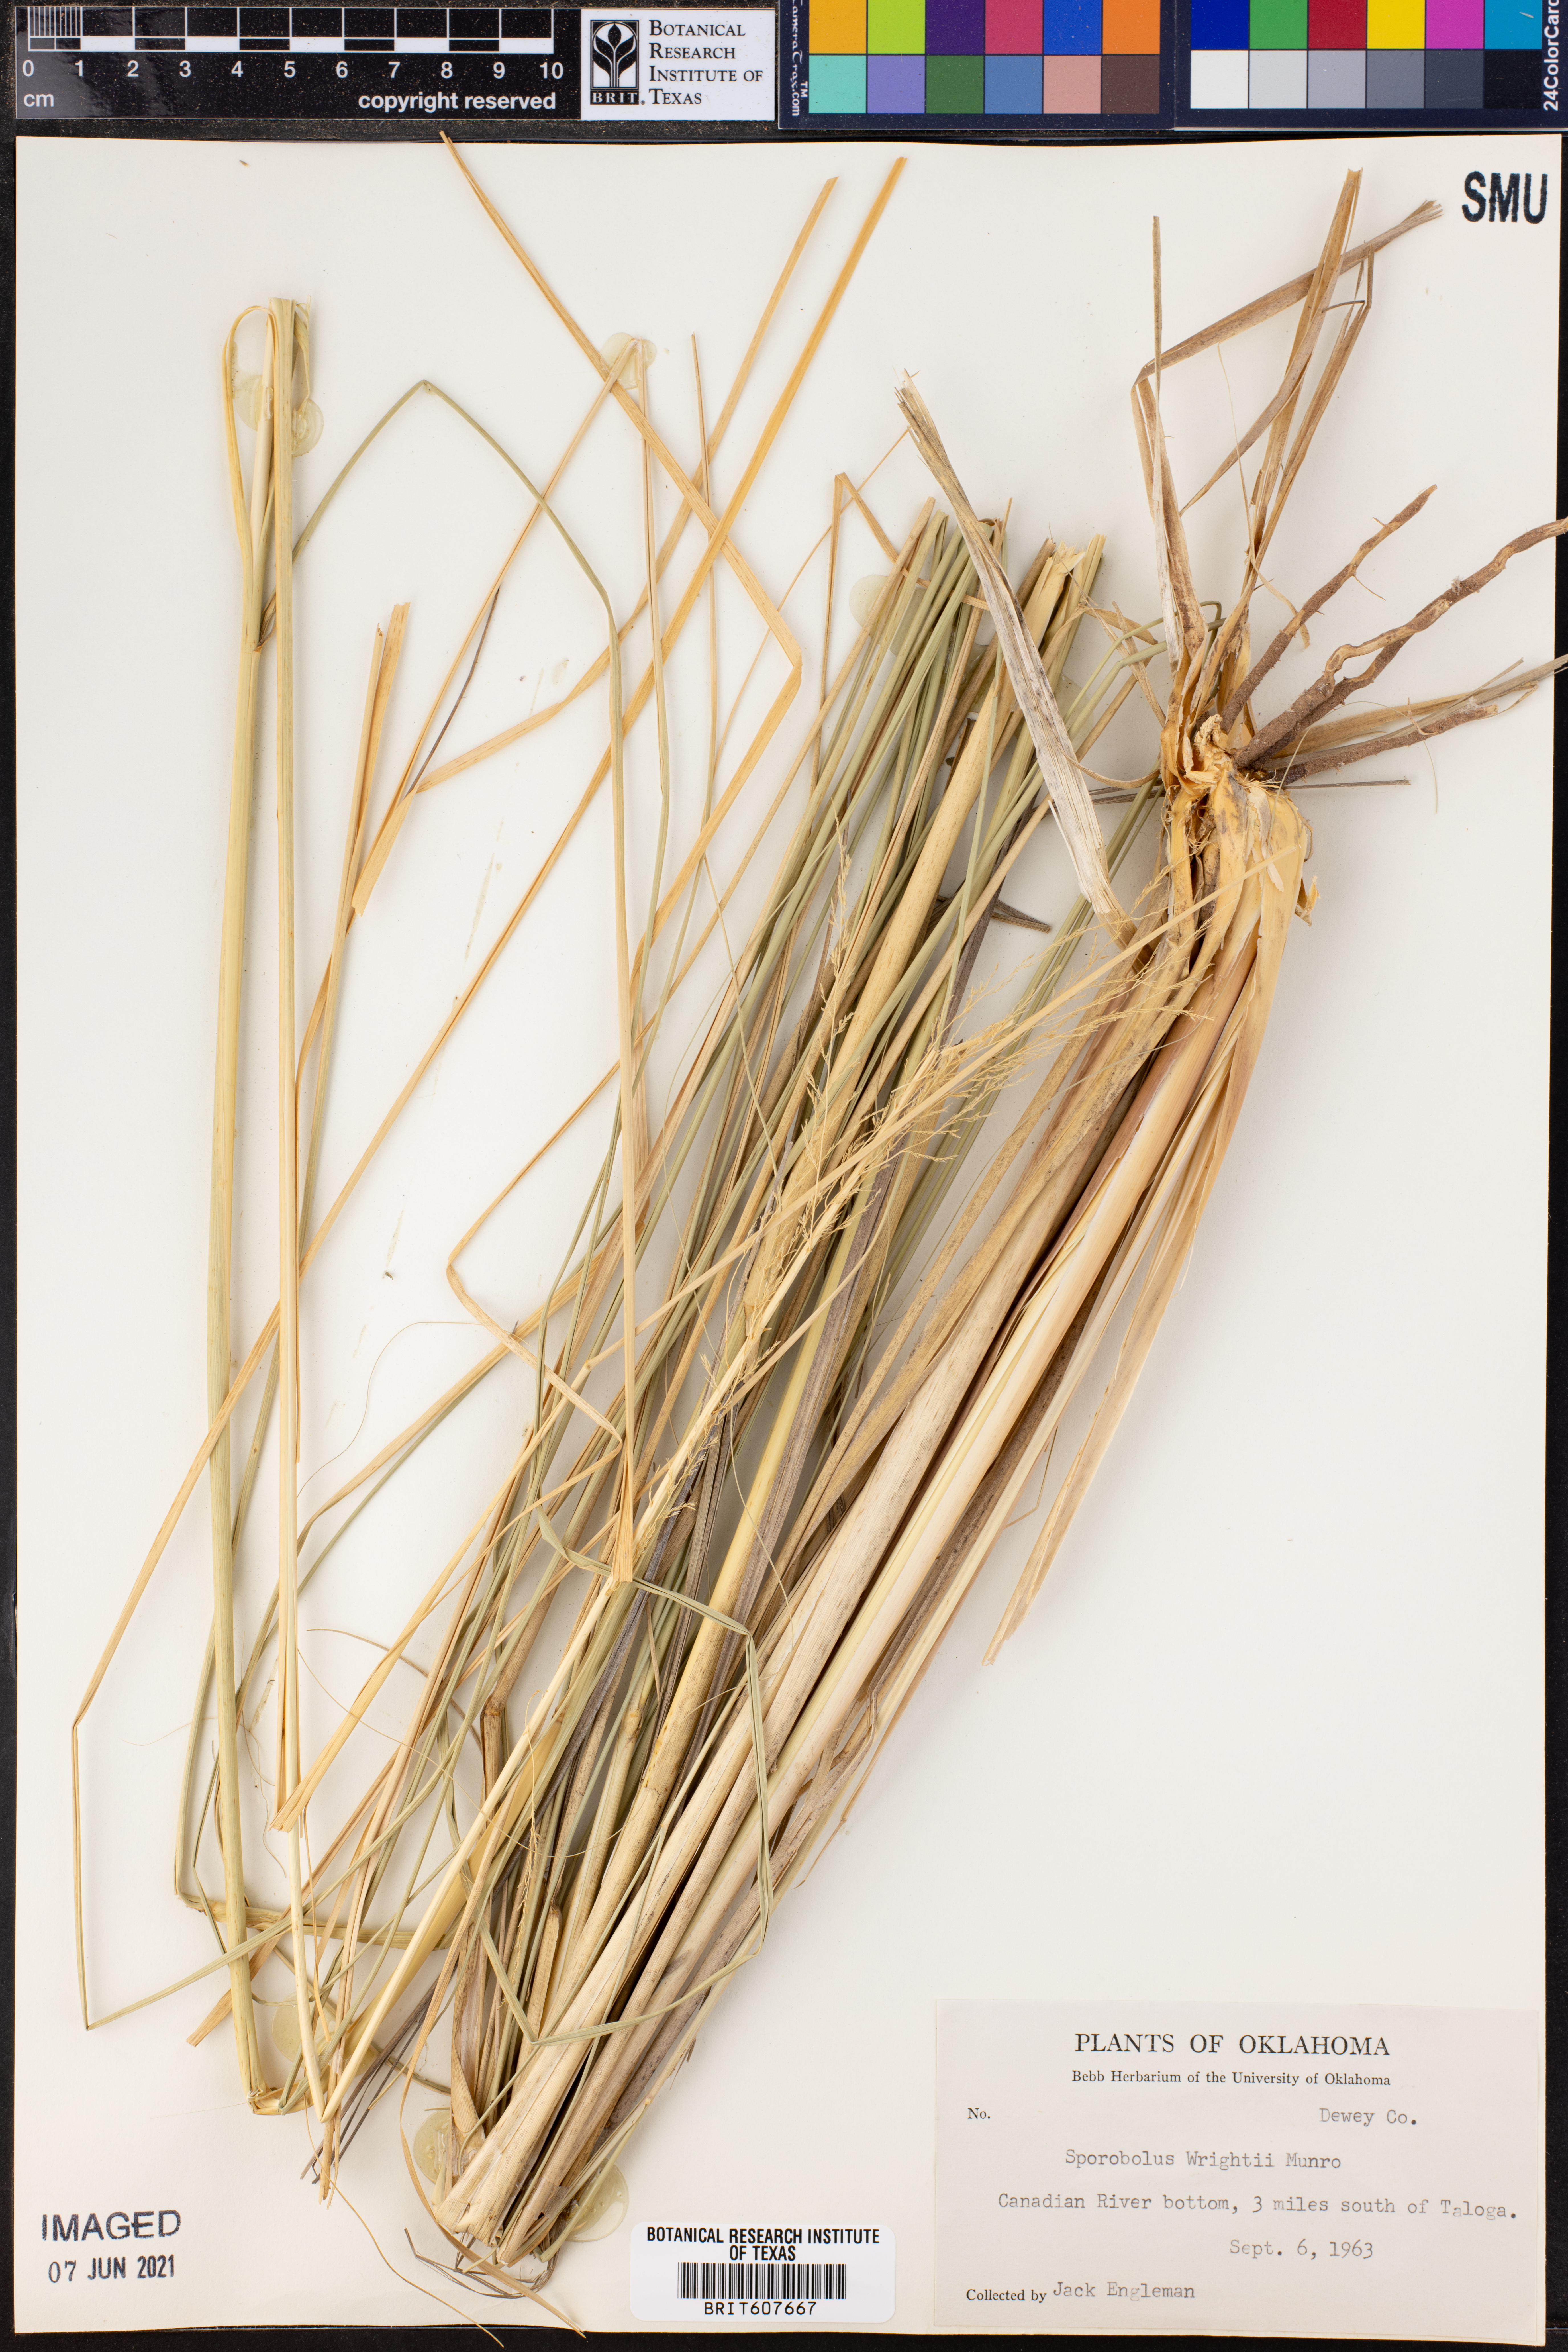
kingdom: Plantae
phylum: Tracheophyta
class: Liliopsida
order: Poales
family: Poaceae
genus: Sporobolus
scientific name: Sporobolus wrightii
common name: Big alkali sacaton
